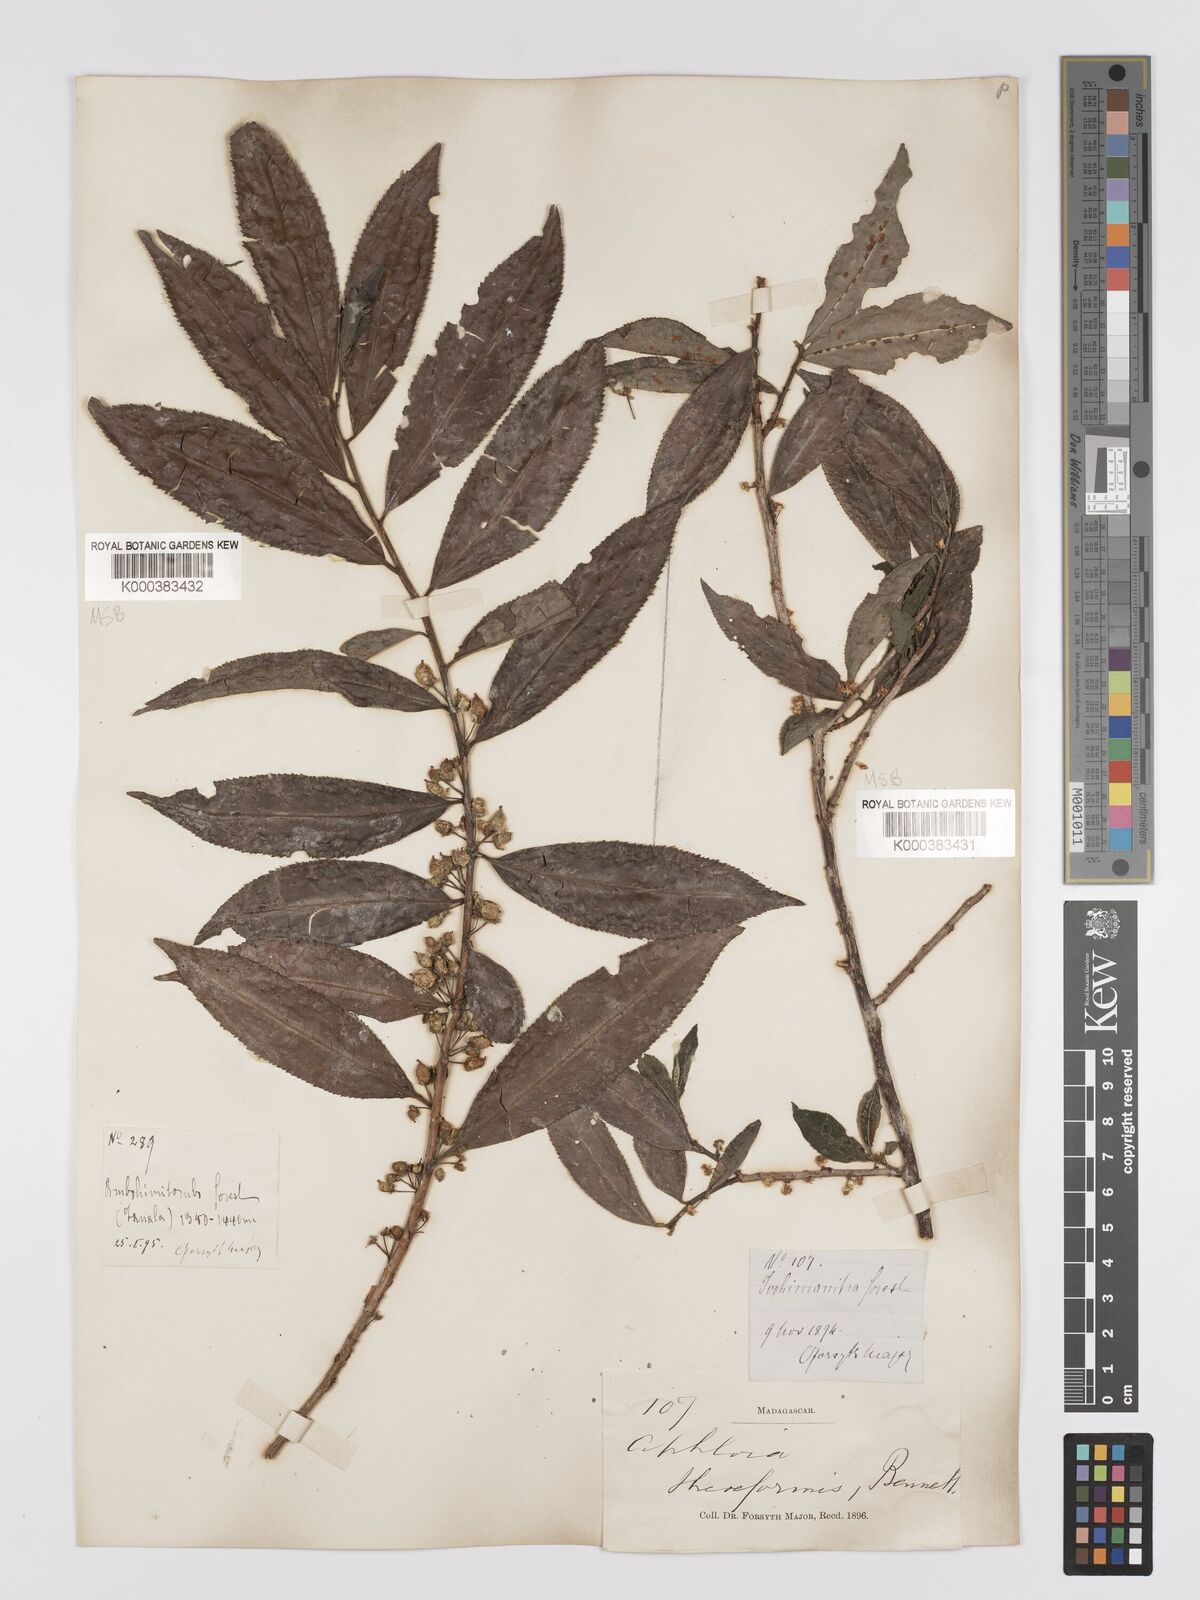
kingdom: Plantae
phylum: Tracheophyta
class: Magnoliopsida
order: Crossosomatales
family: Aphloiaceae
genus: Aphloia
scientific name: Aphloia theiformis
